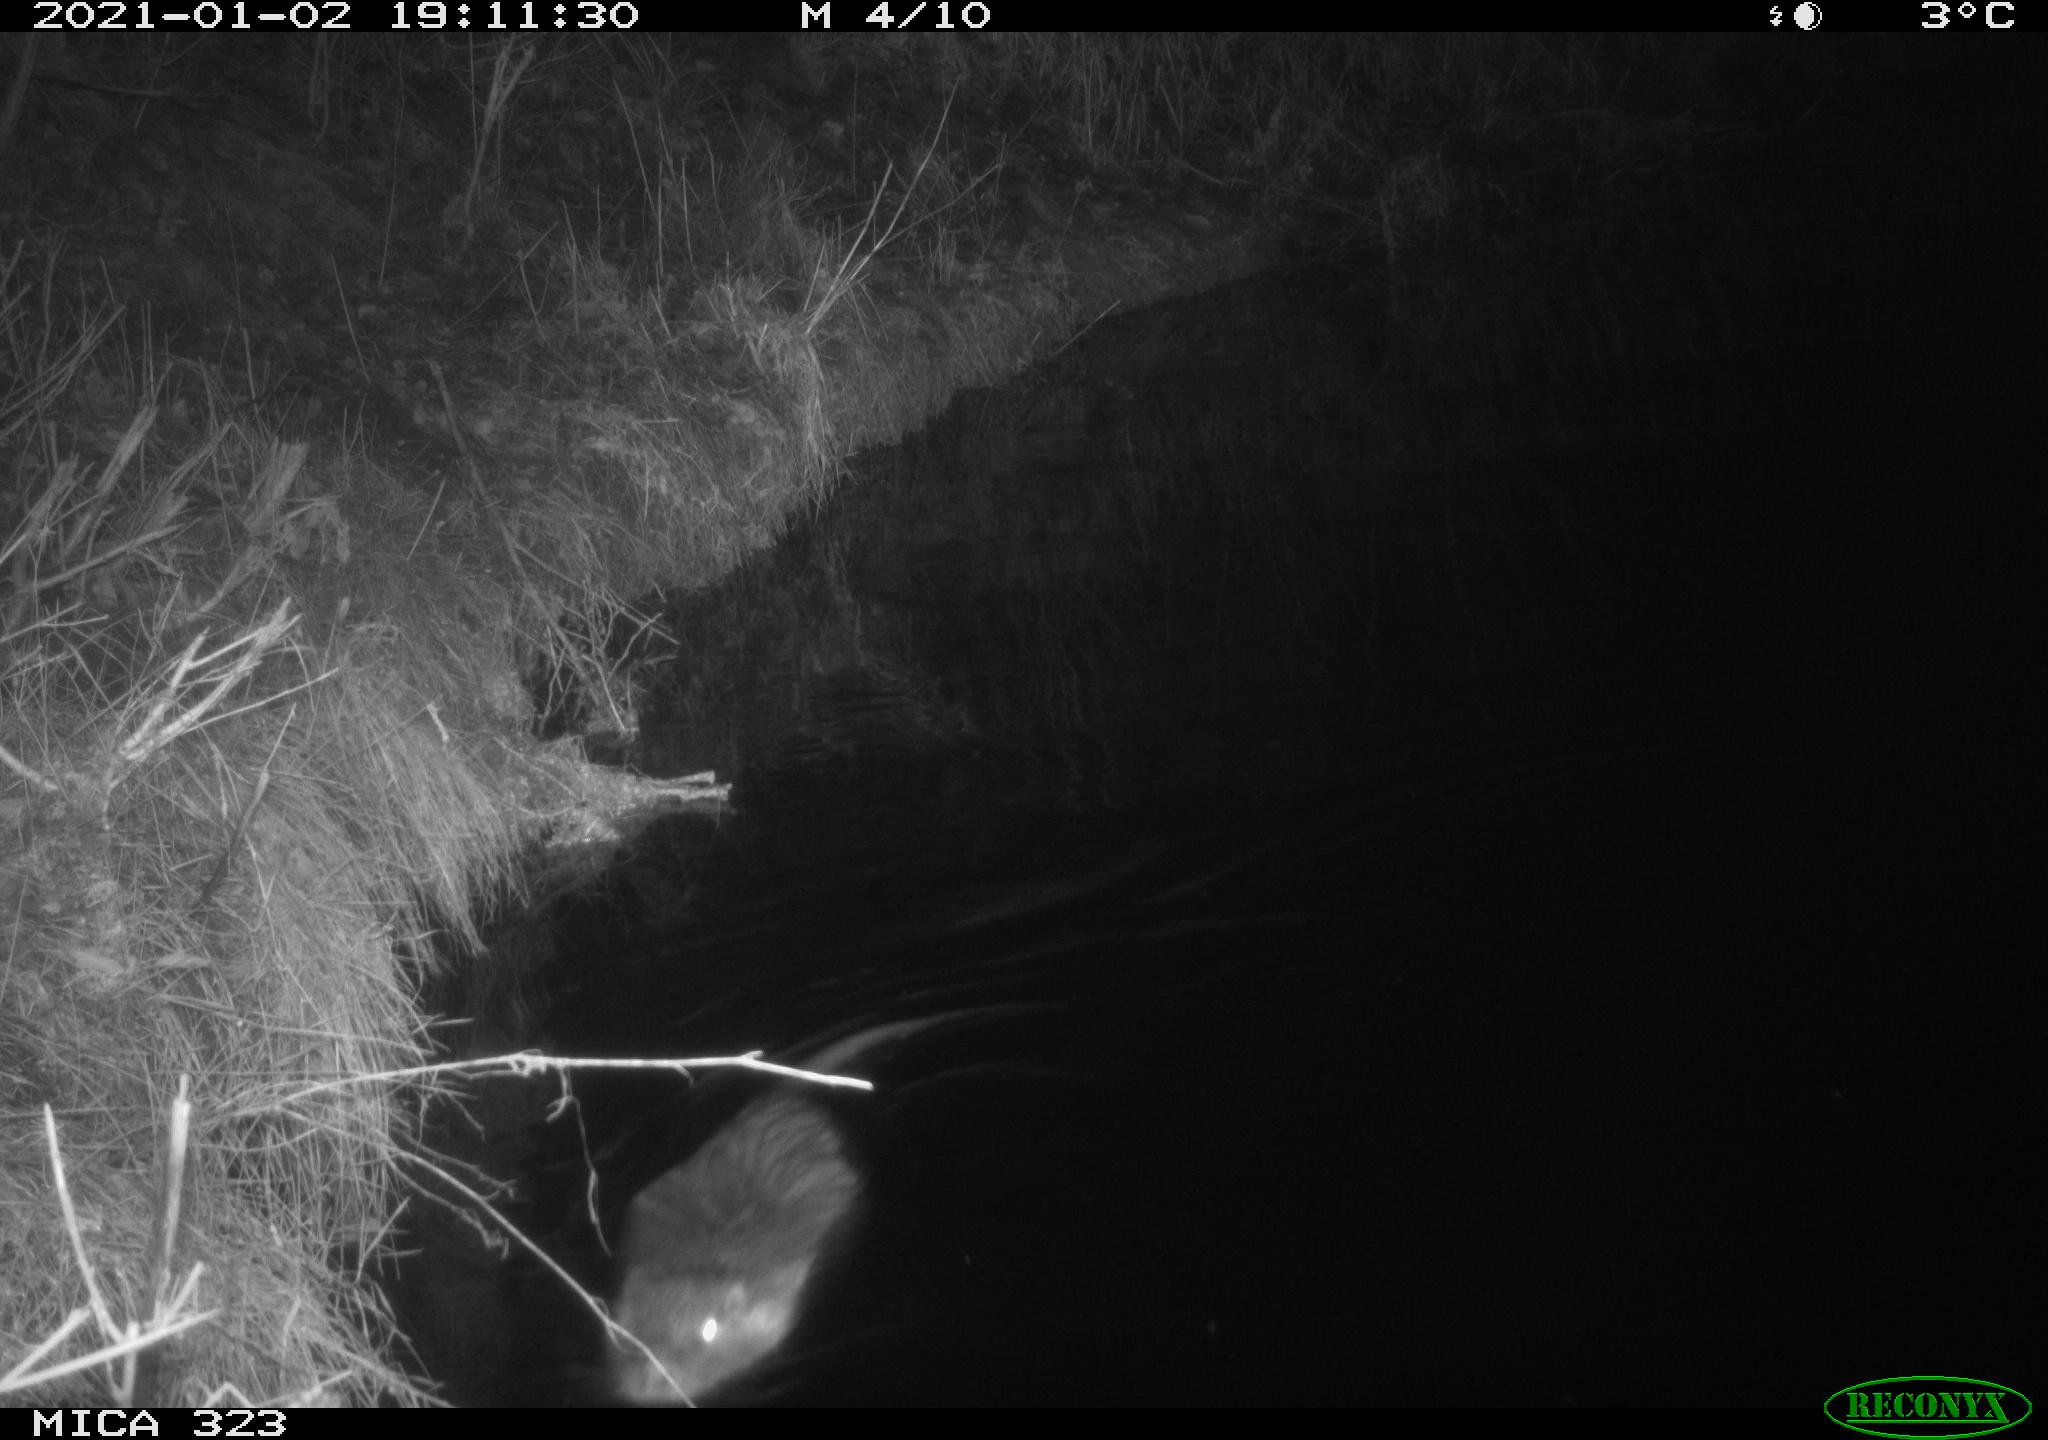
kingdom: Animalia
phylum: Chordata
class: Mammalia
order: Rodentia
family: Myocastoridae
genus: Myocastor
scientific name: Myocastor coypus
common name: Coypu
